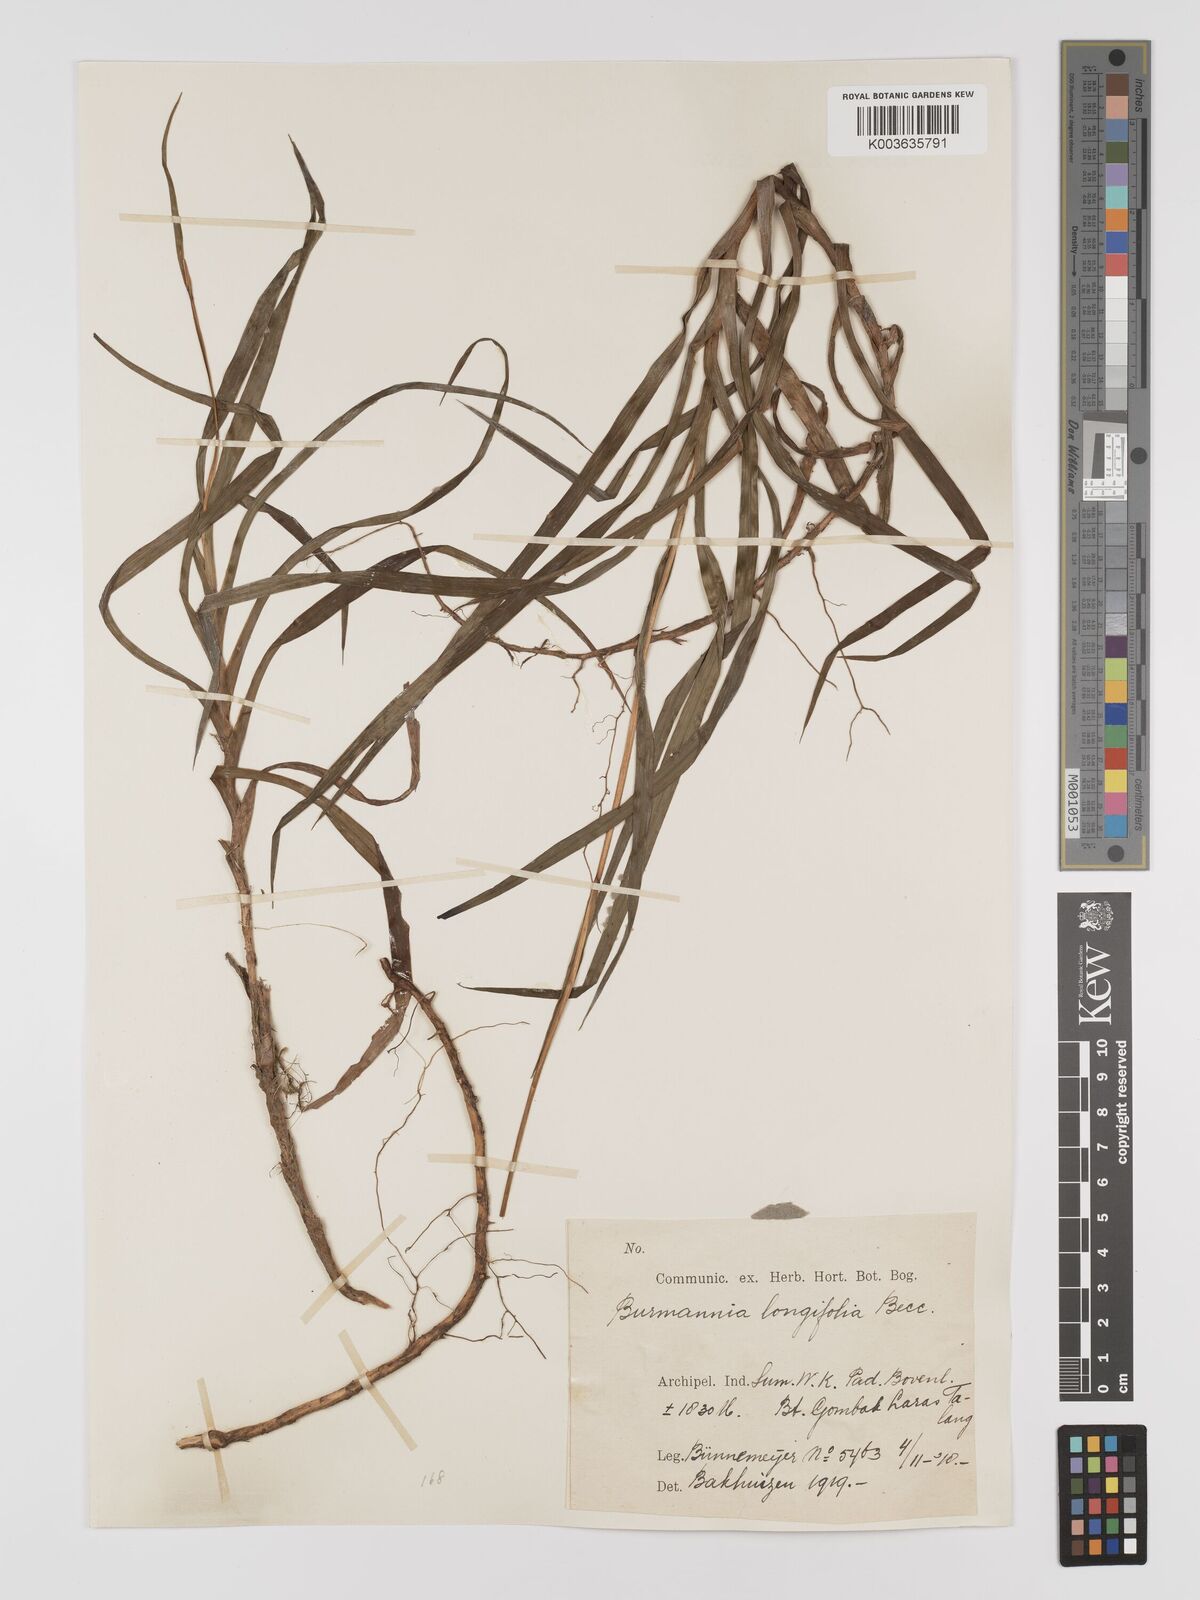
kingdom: Plantae
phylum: Tracheophyta
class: Liliopsida
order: Dioscoreales
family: Burmanniaceae
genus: Burmannia
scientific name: Burmannia longifolia
